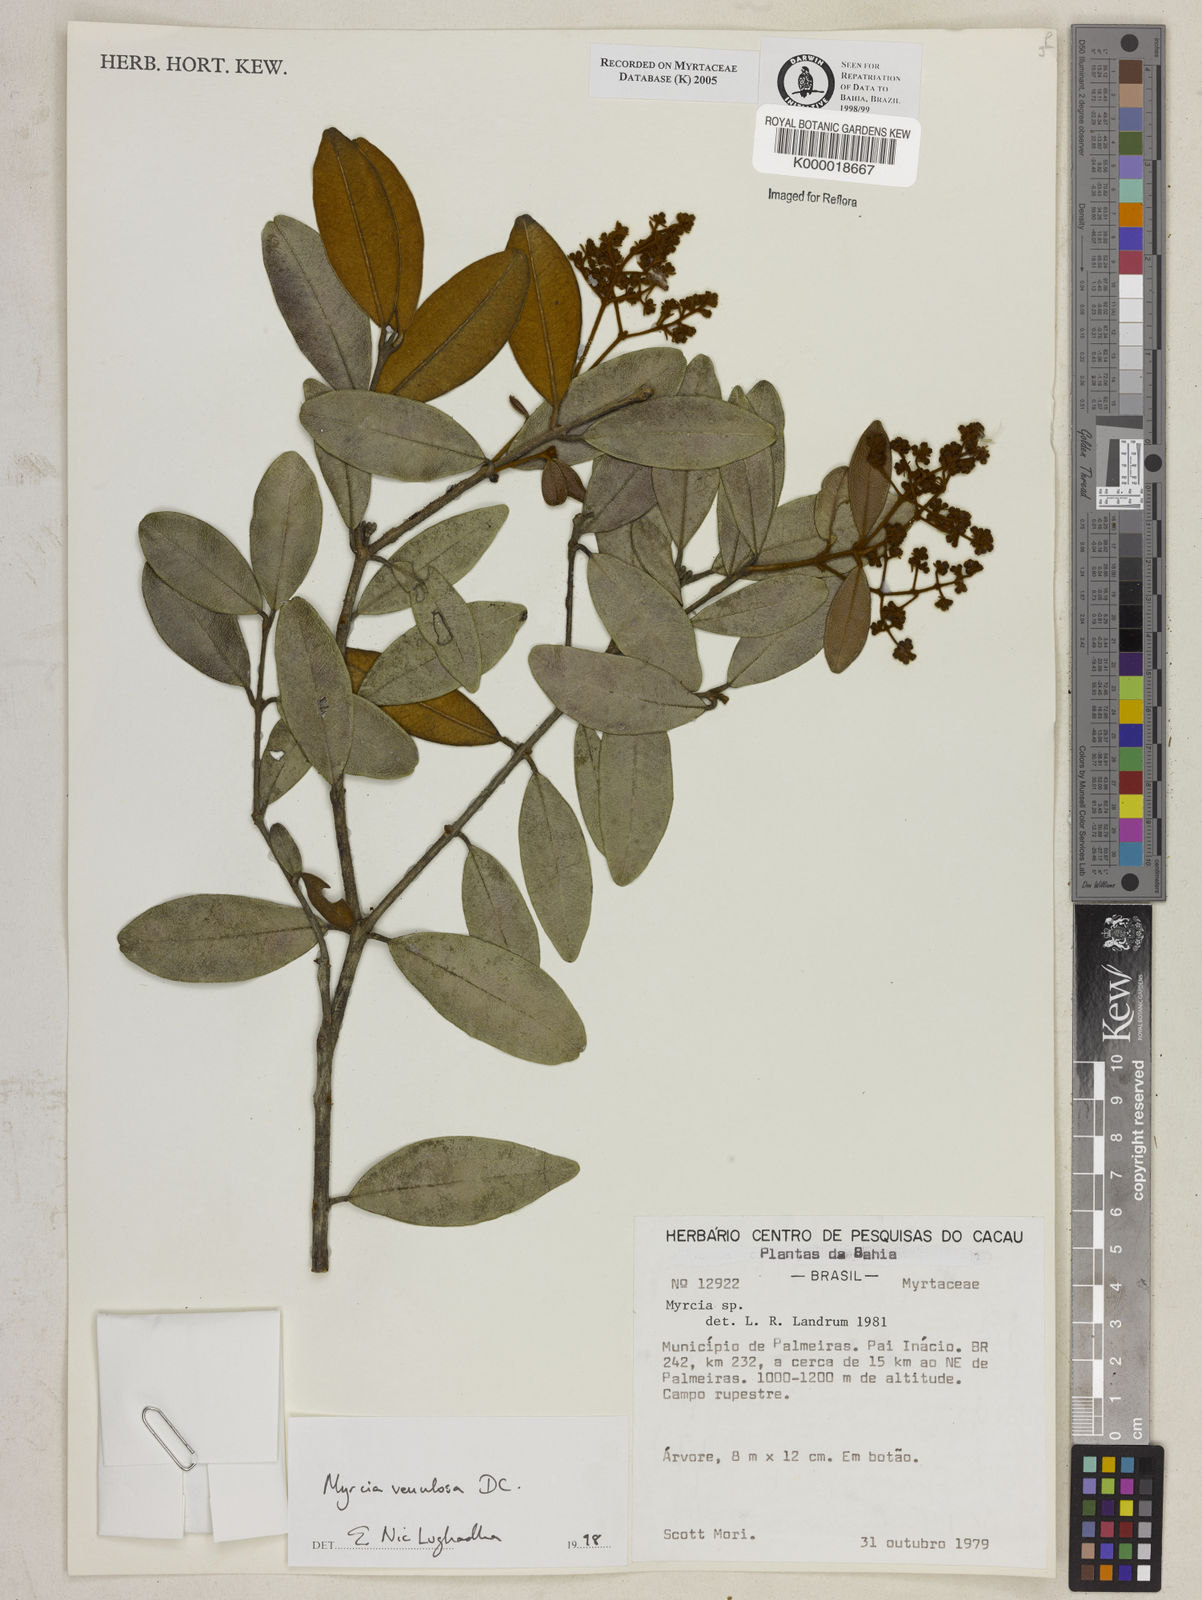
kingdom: Plantae
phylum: Tracheophyta
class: Magnoliopsida
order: Myrtales
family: Myrtaceae
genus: Myrcia
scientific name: Myrcia venulosa
